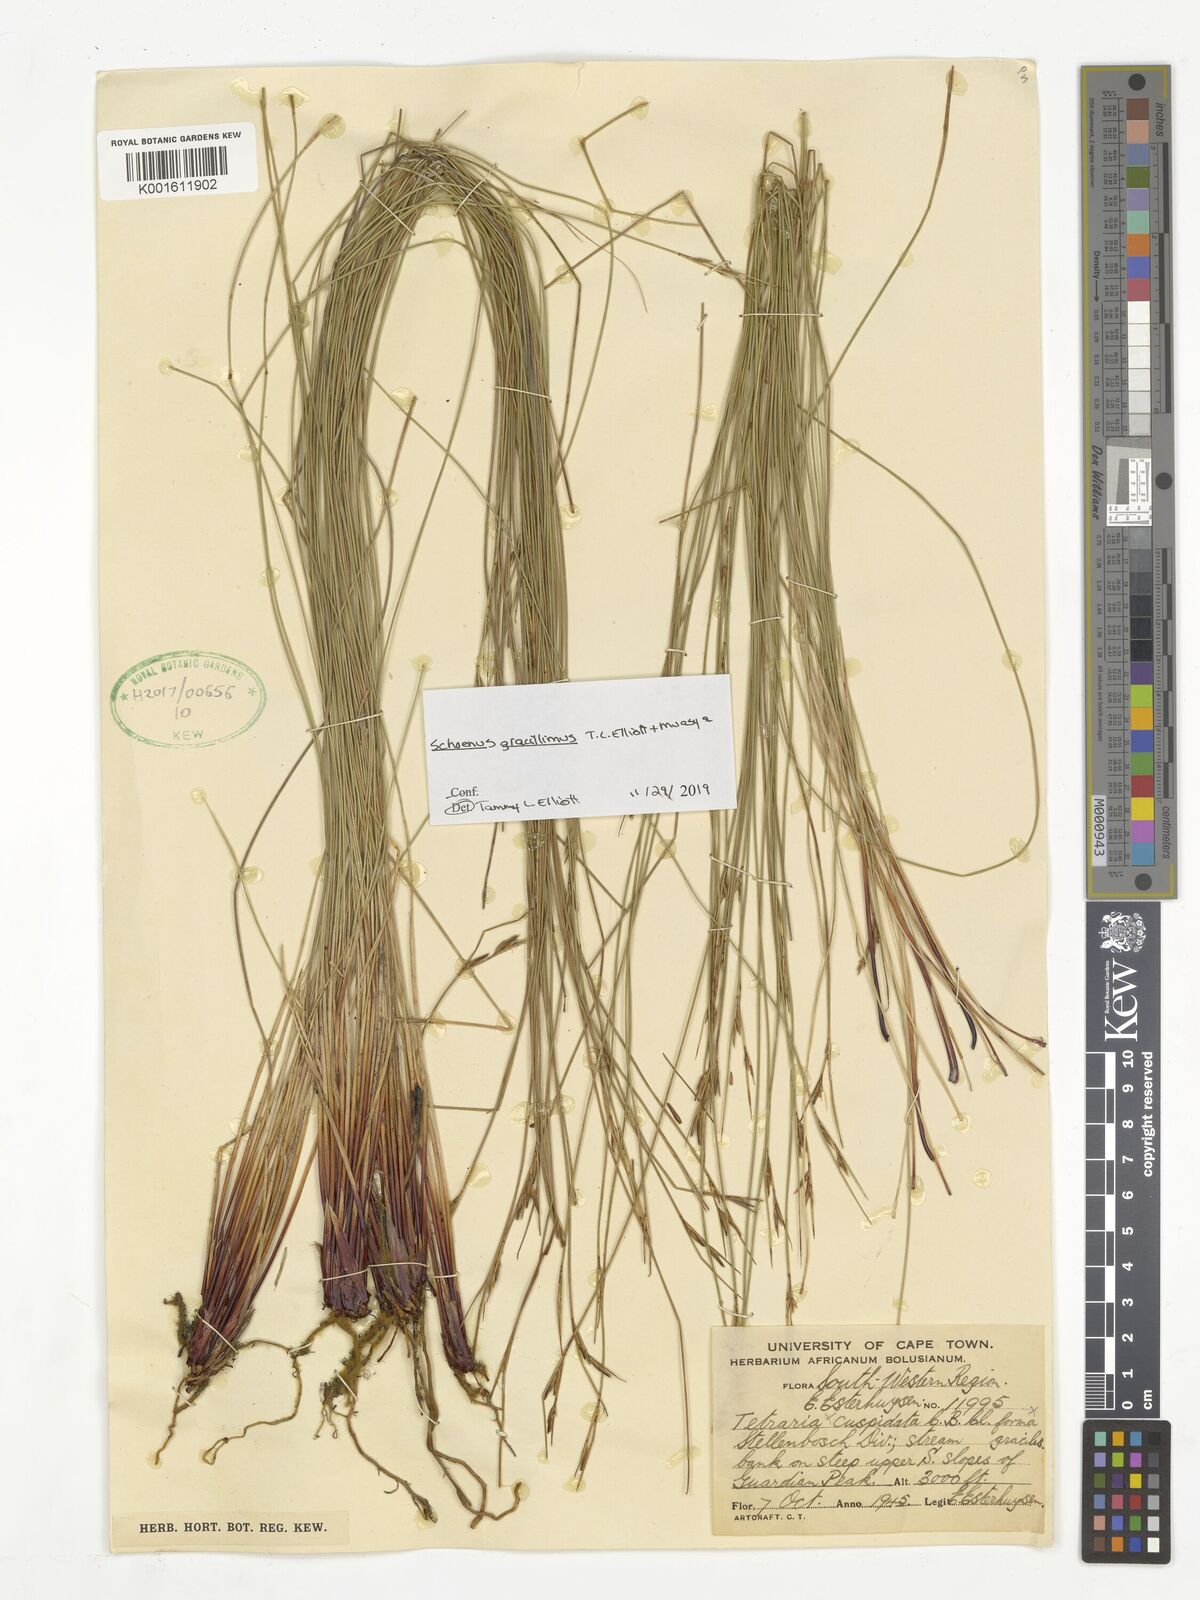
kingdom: Plantae
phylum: Tracheophyta
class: Liliopsida
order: Poales
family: Cyperaceae
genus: Schoenus
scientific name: Schoenus gracillimus
